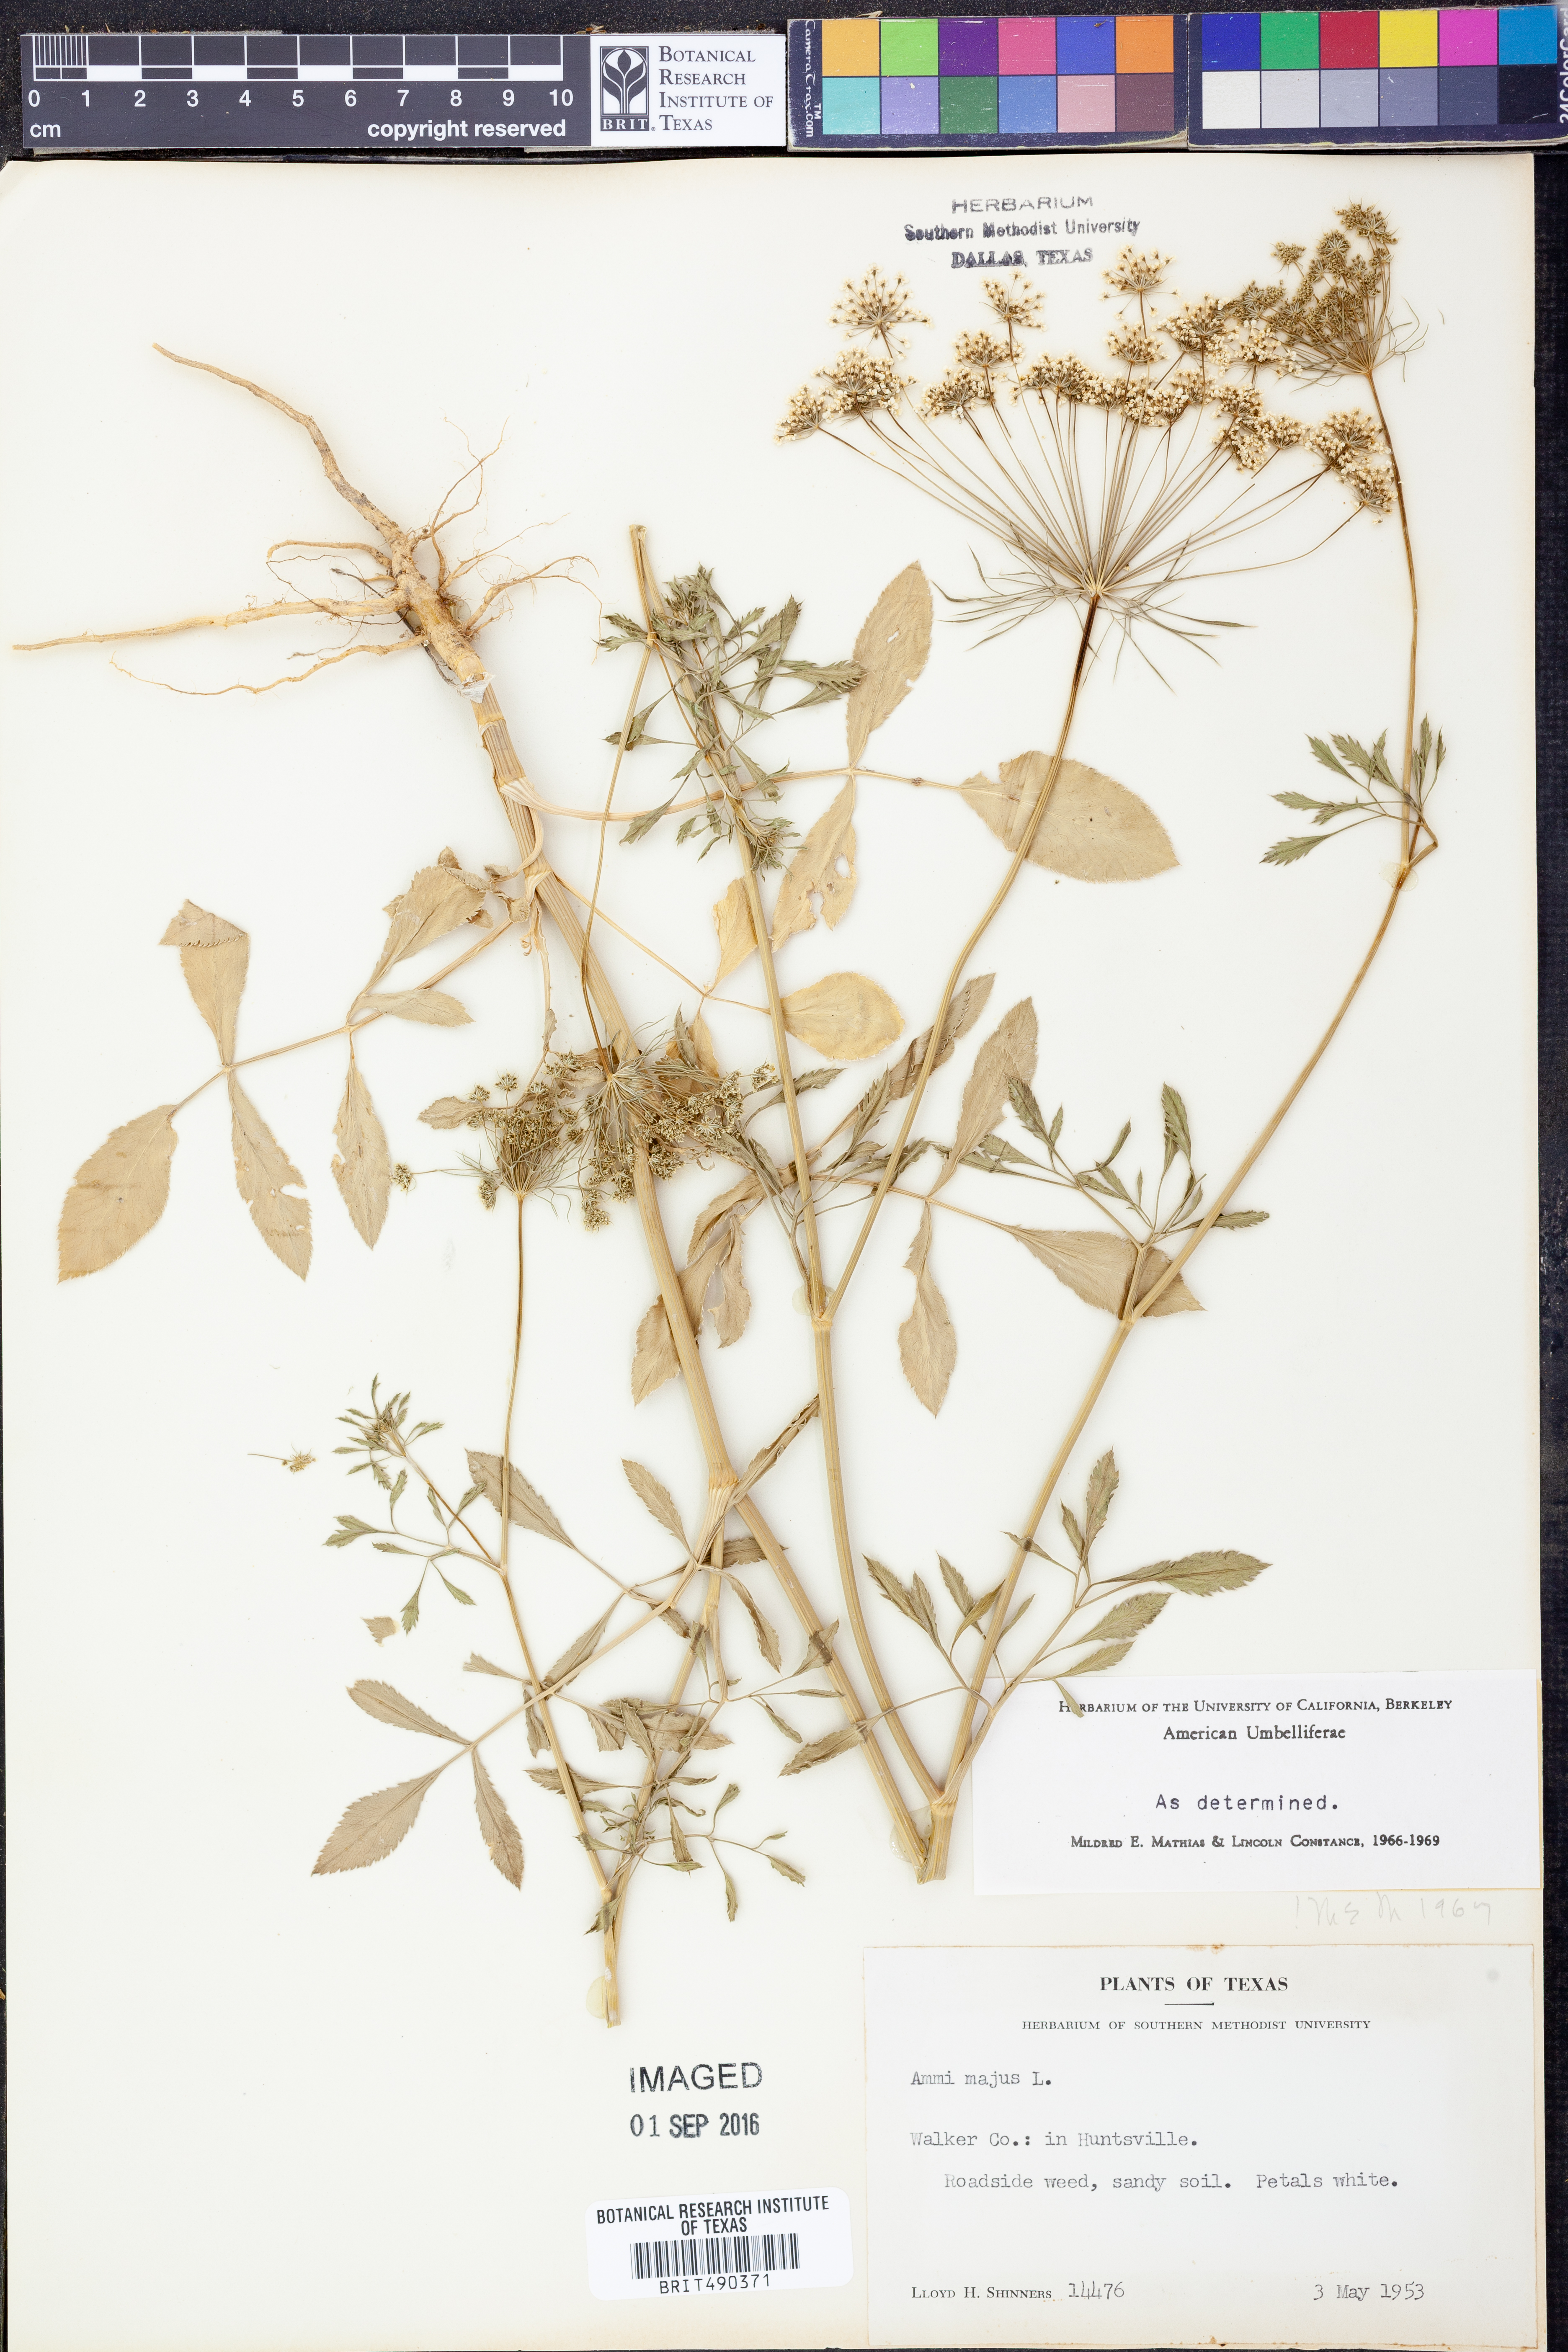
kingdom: Plantae
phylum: Tracheophyta
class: Magnoliopsida
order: Apiales
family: Apiaceae
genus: Ammi
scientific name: Ammi majus
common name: Bullwort
